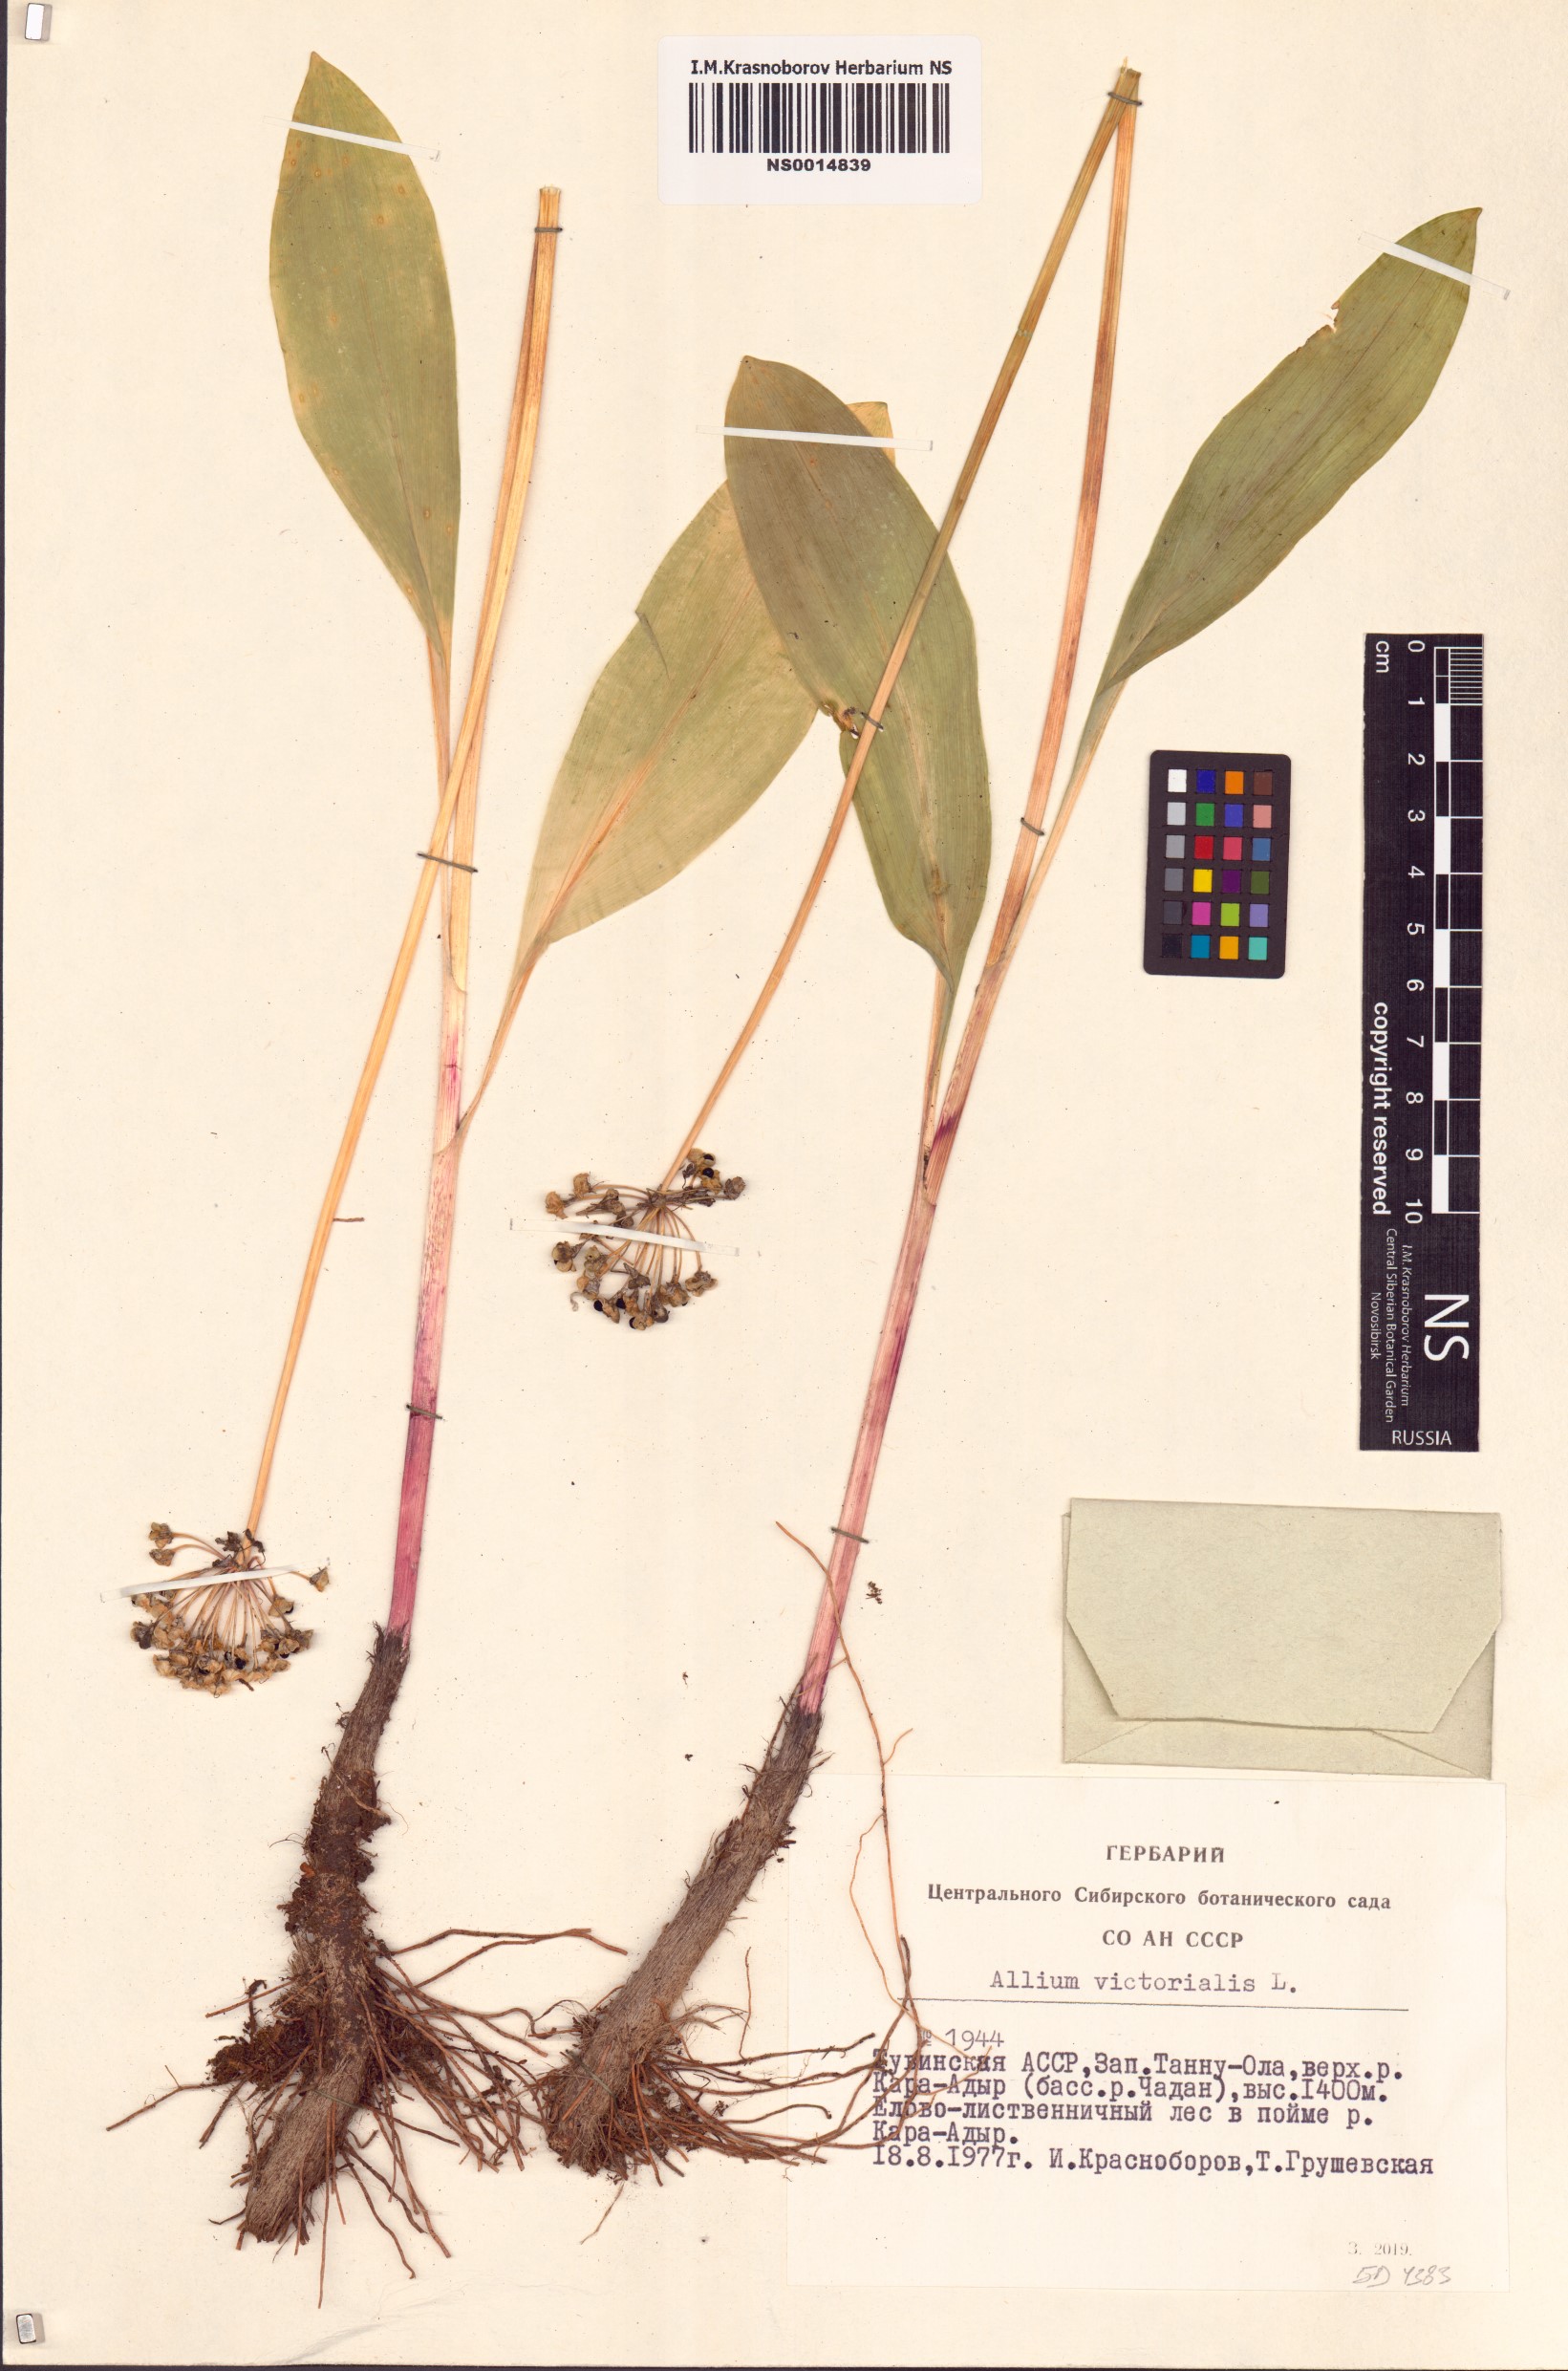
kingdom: Plantae
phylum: Tracheophyta
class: Liliopsida
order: Asparagales
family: Amaryllidaceae
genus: Allium
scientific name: Allium victorialis
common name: Alpine leek
